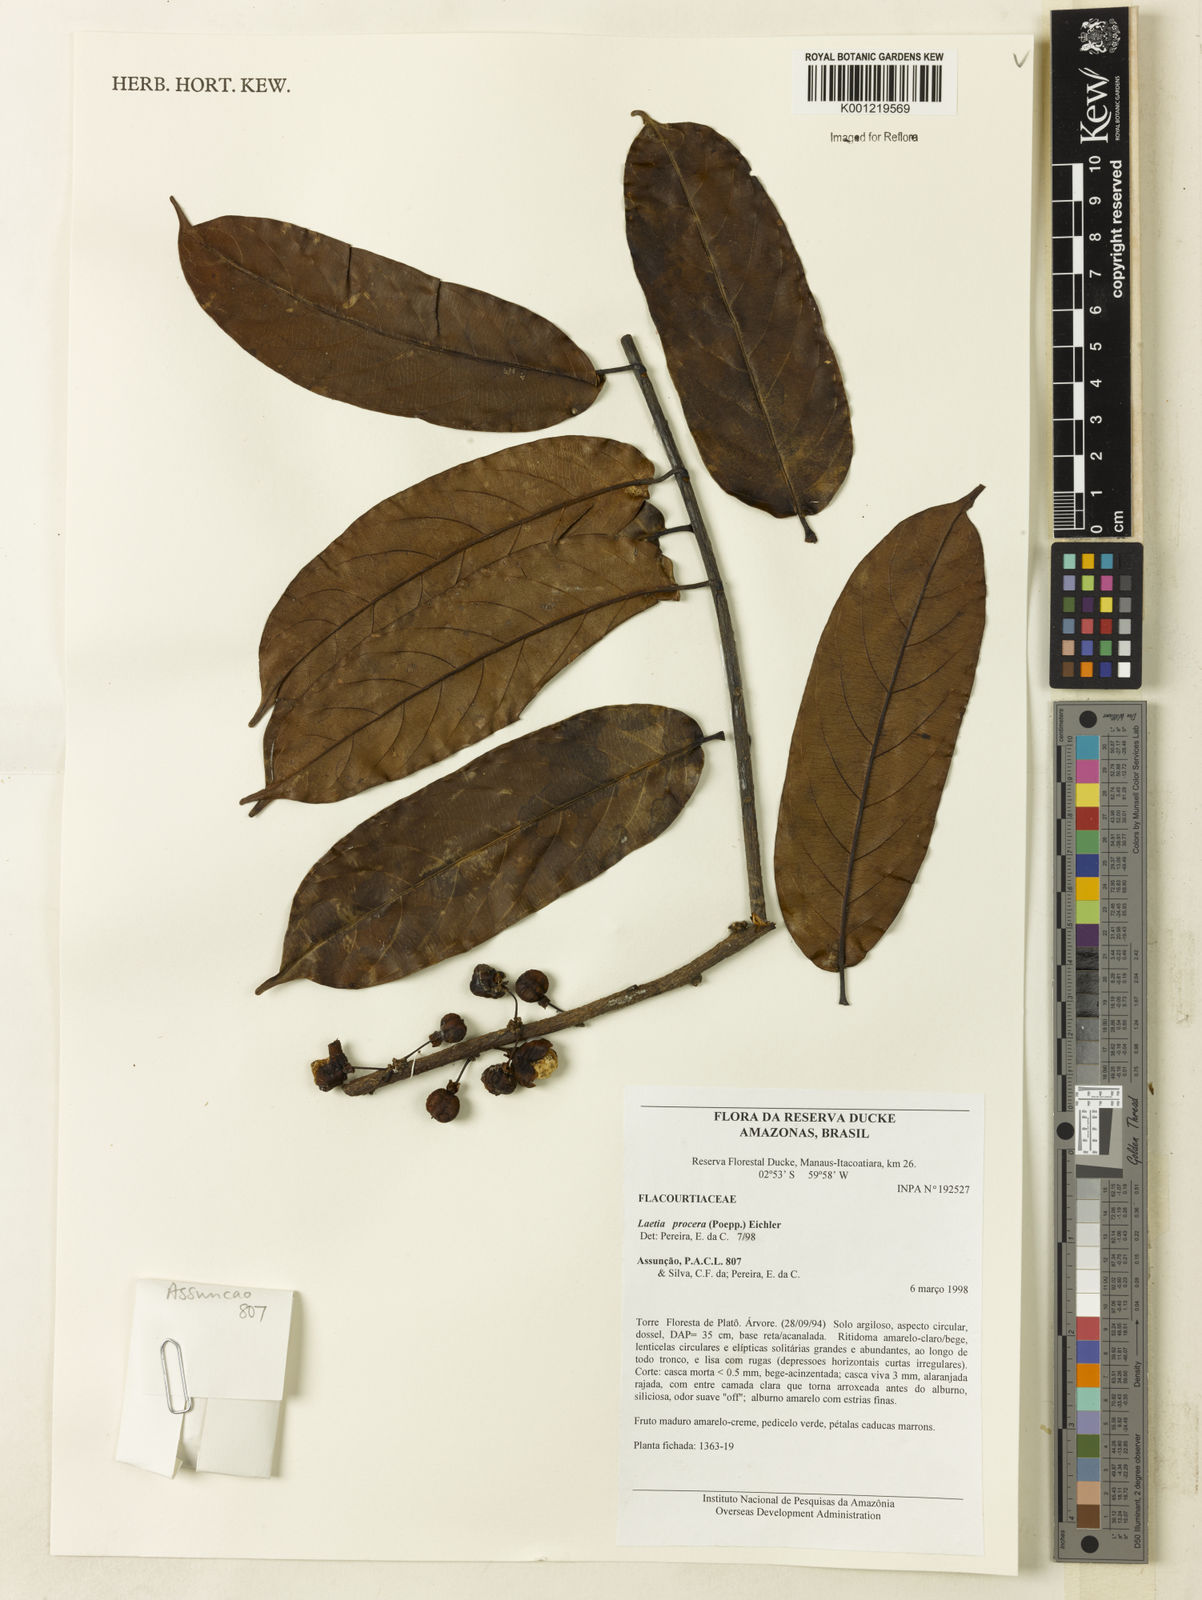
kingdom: Plantae
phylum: Tracheophyta
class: Magnoliopsida
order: Malpighiales
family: Salicaceae
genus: Casearia
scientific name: Casearia bicolor
